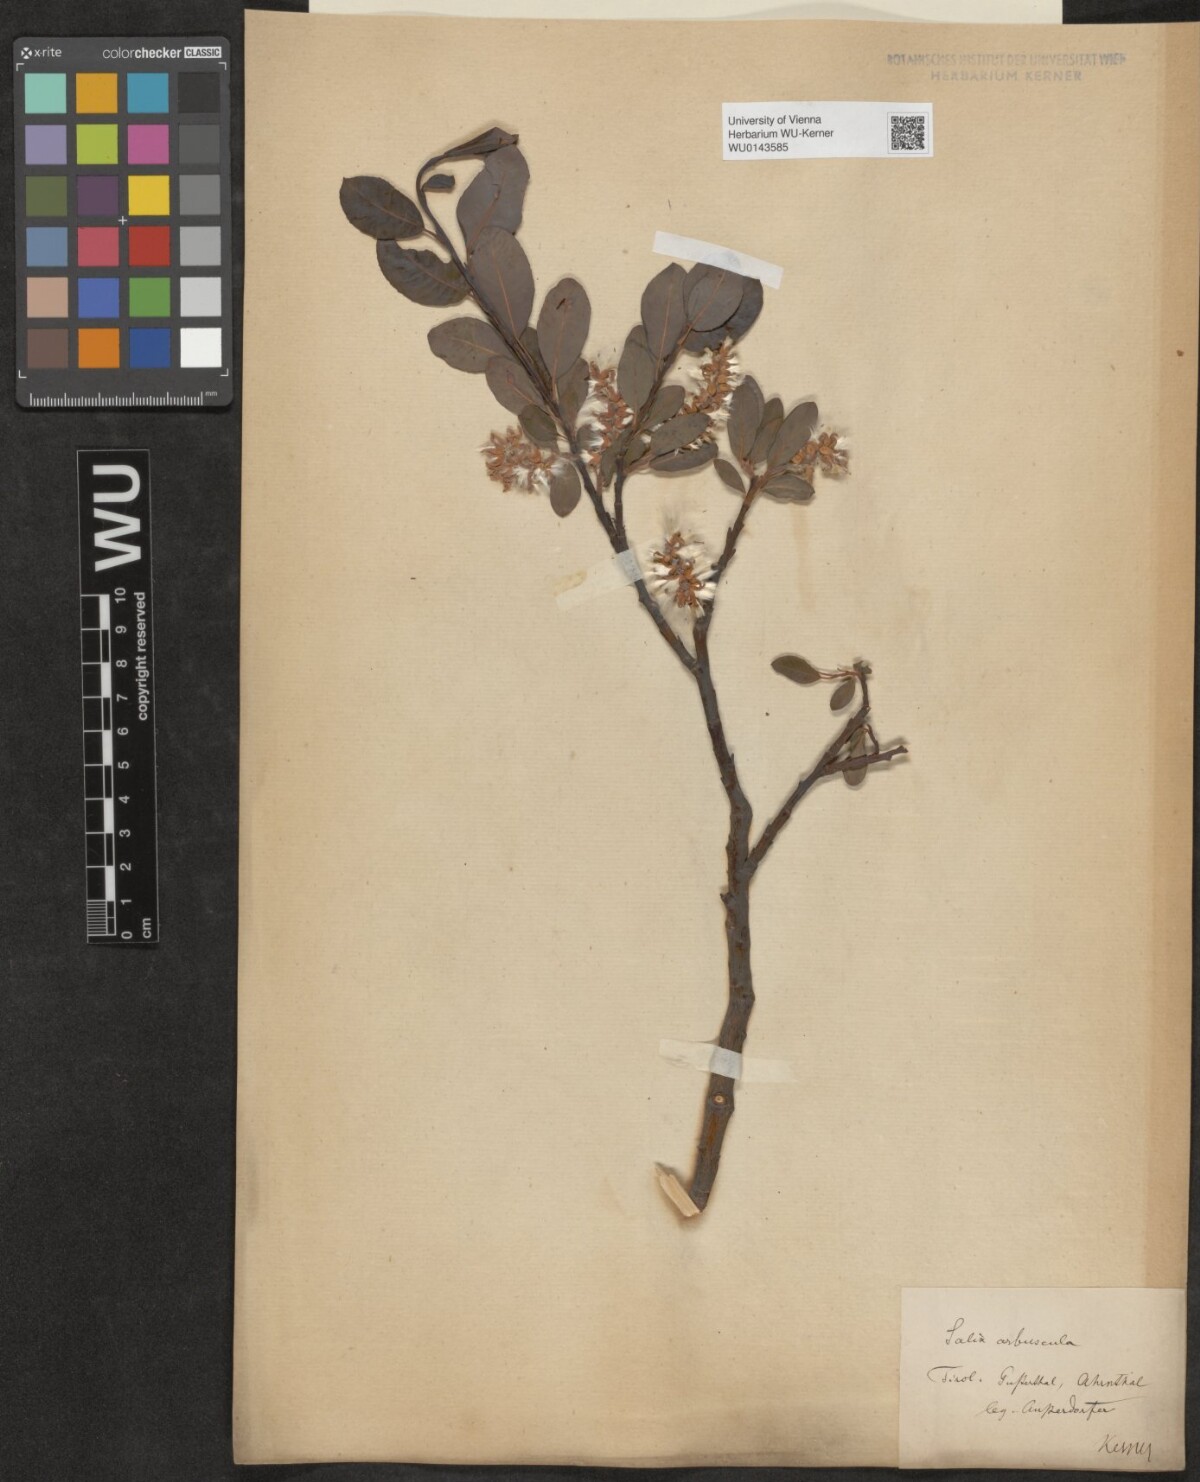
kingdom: Plantae
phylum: Tracheophyta
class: Magnoliopsida
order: Malpighiales
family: Salicaceae
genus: Salix
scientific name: Salix waldsteiniana
